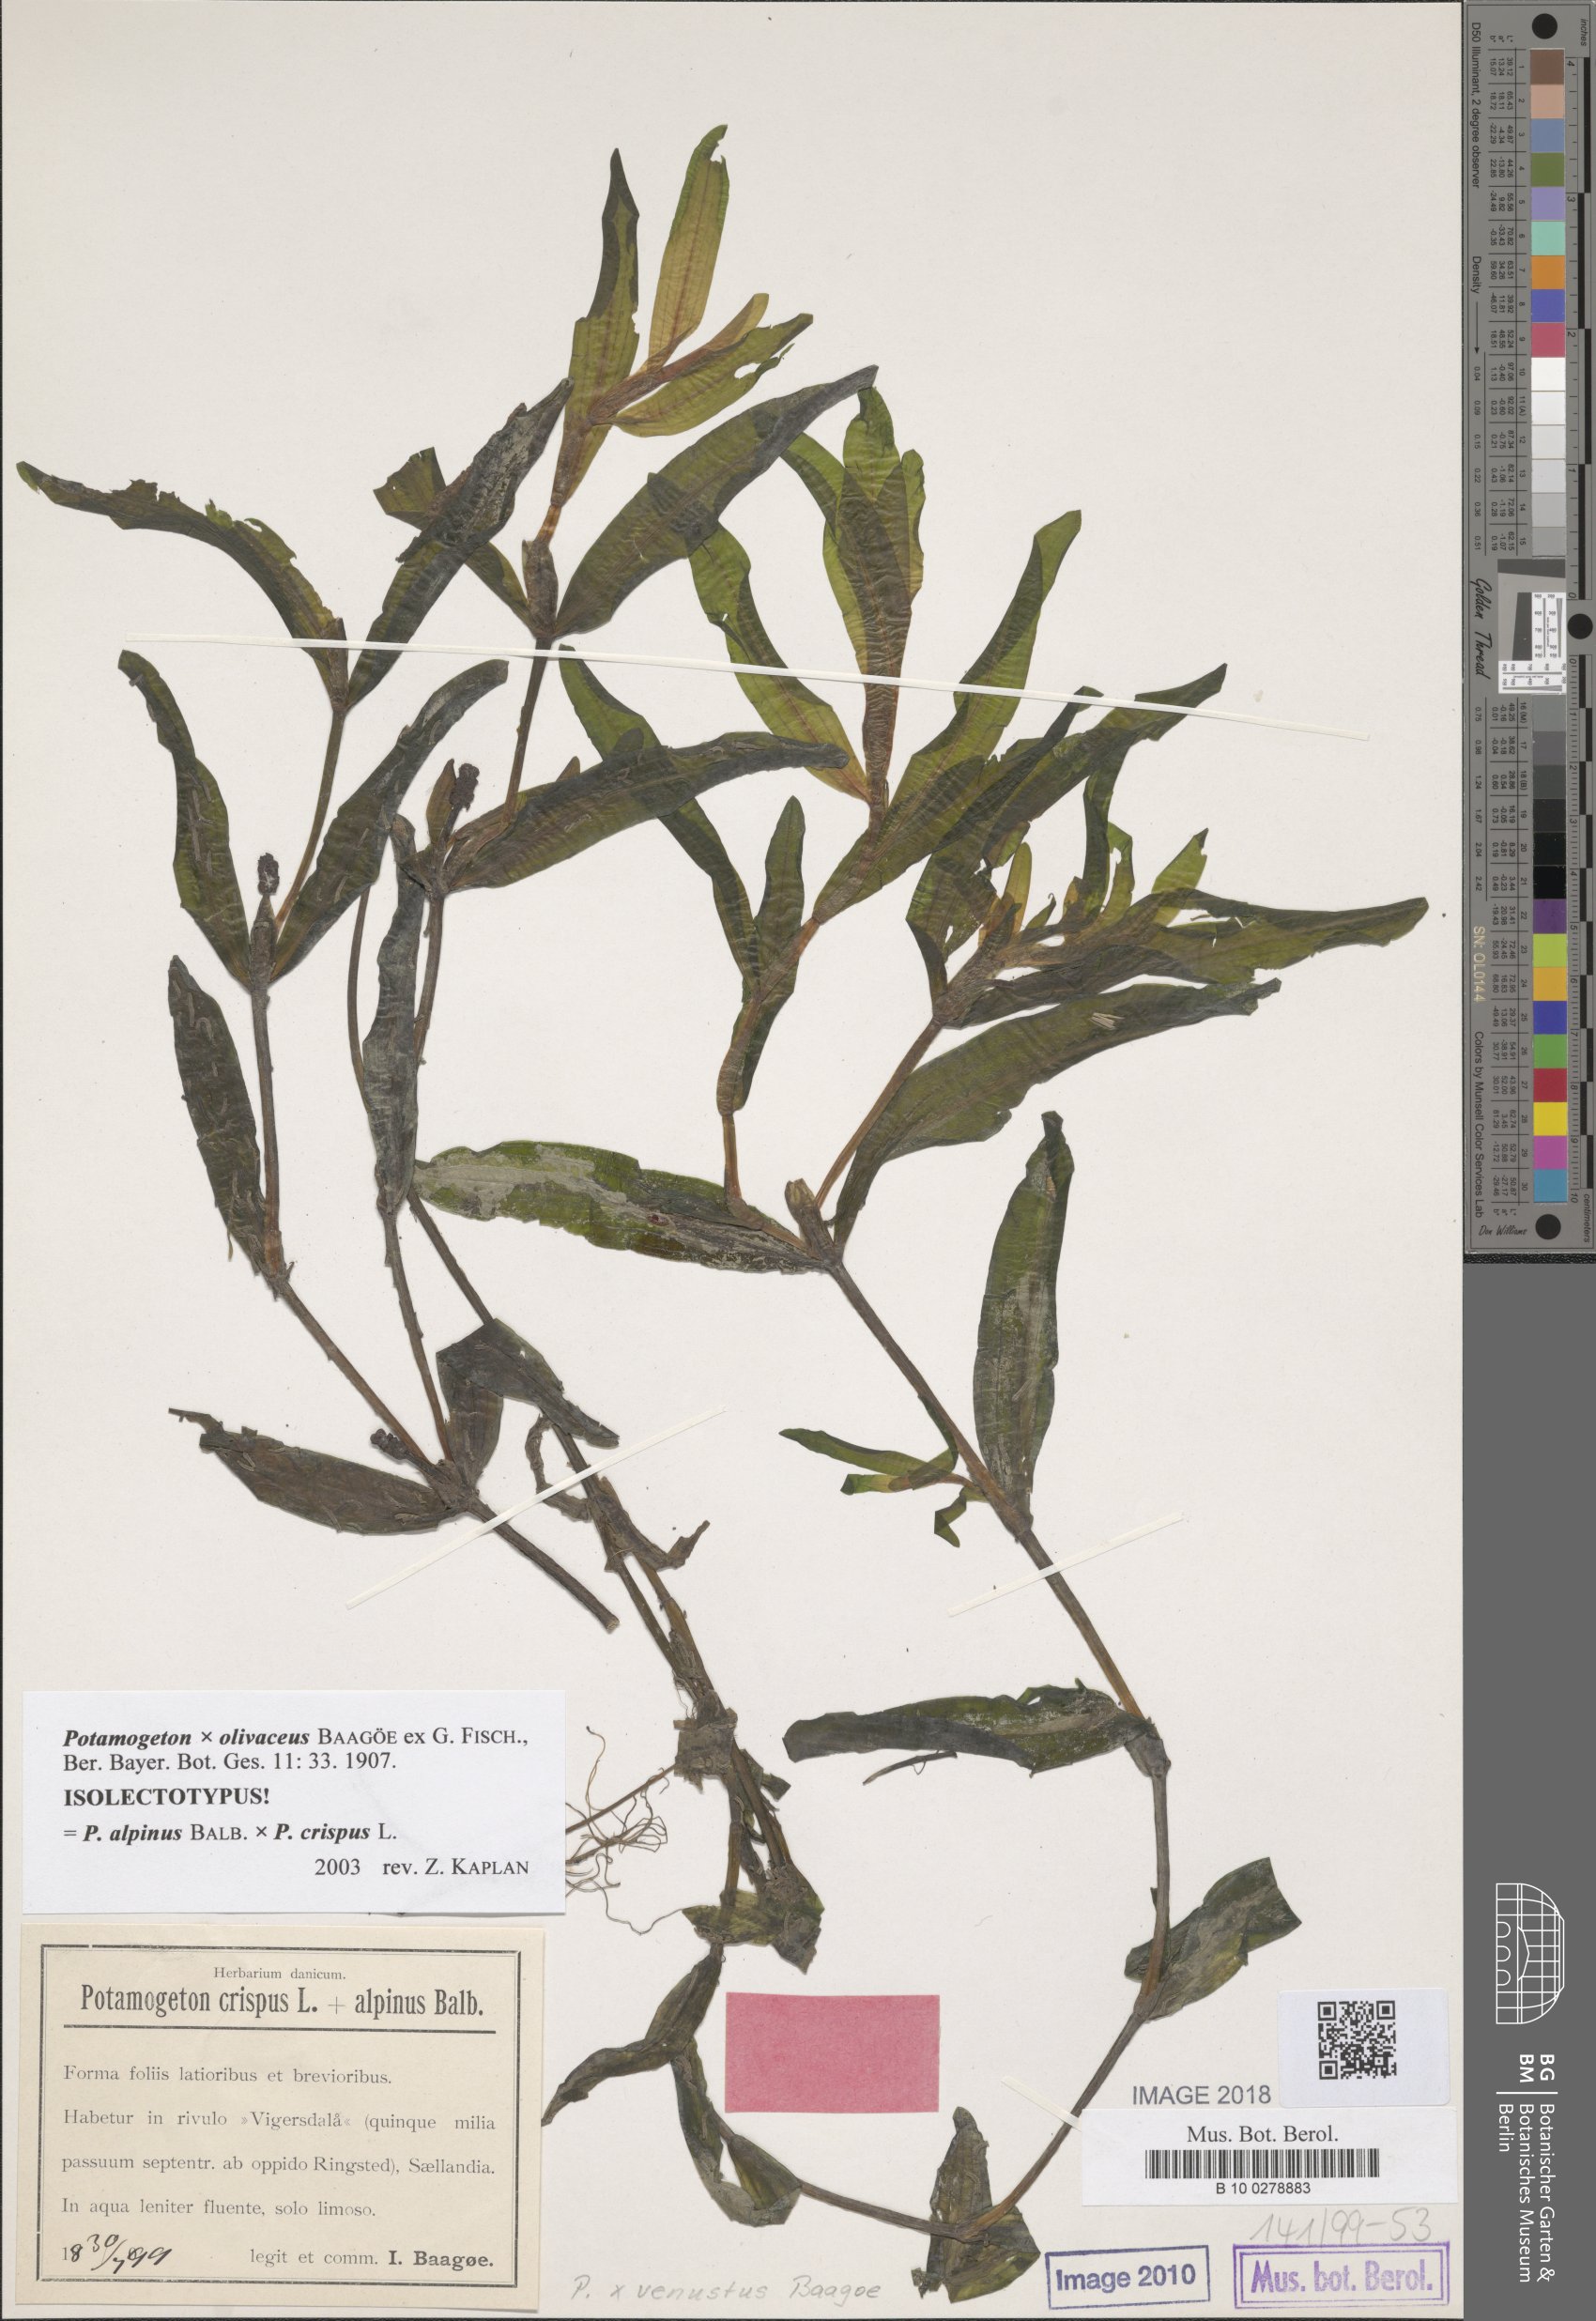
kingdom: Plantae
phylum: Tracheophyta
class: Liliopsida
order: Alismatales
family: Potamogetonaceae
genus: Potamogeton
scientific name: Potamogeton olivaceus
